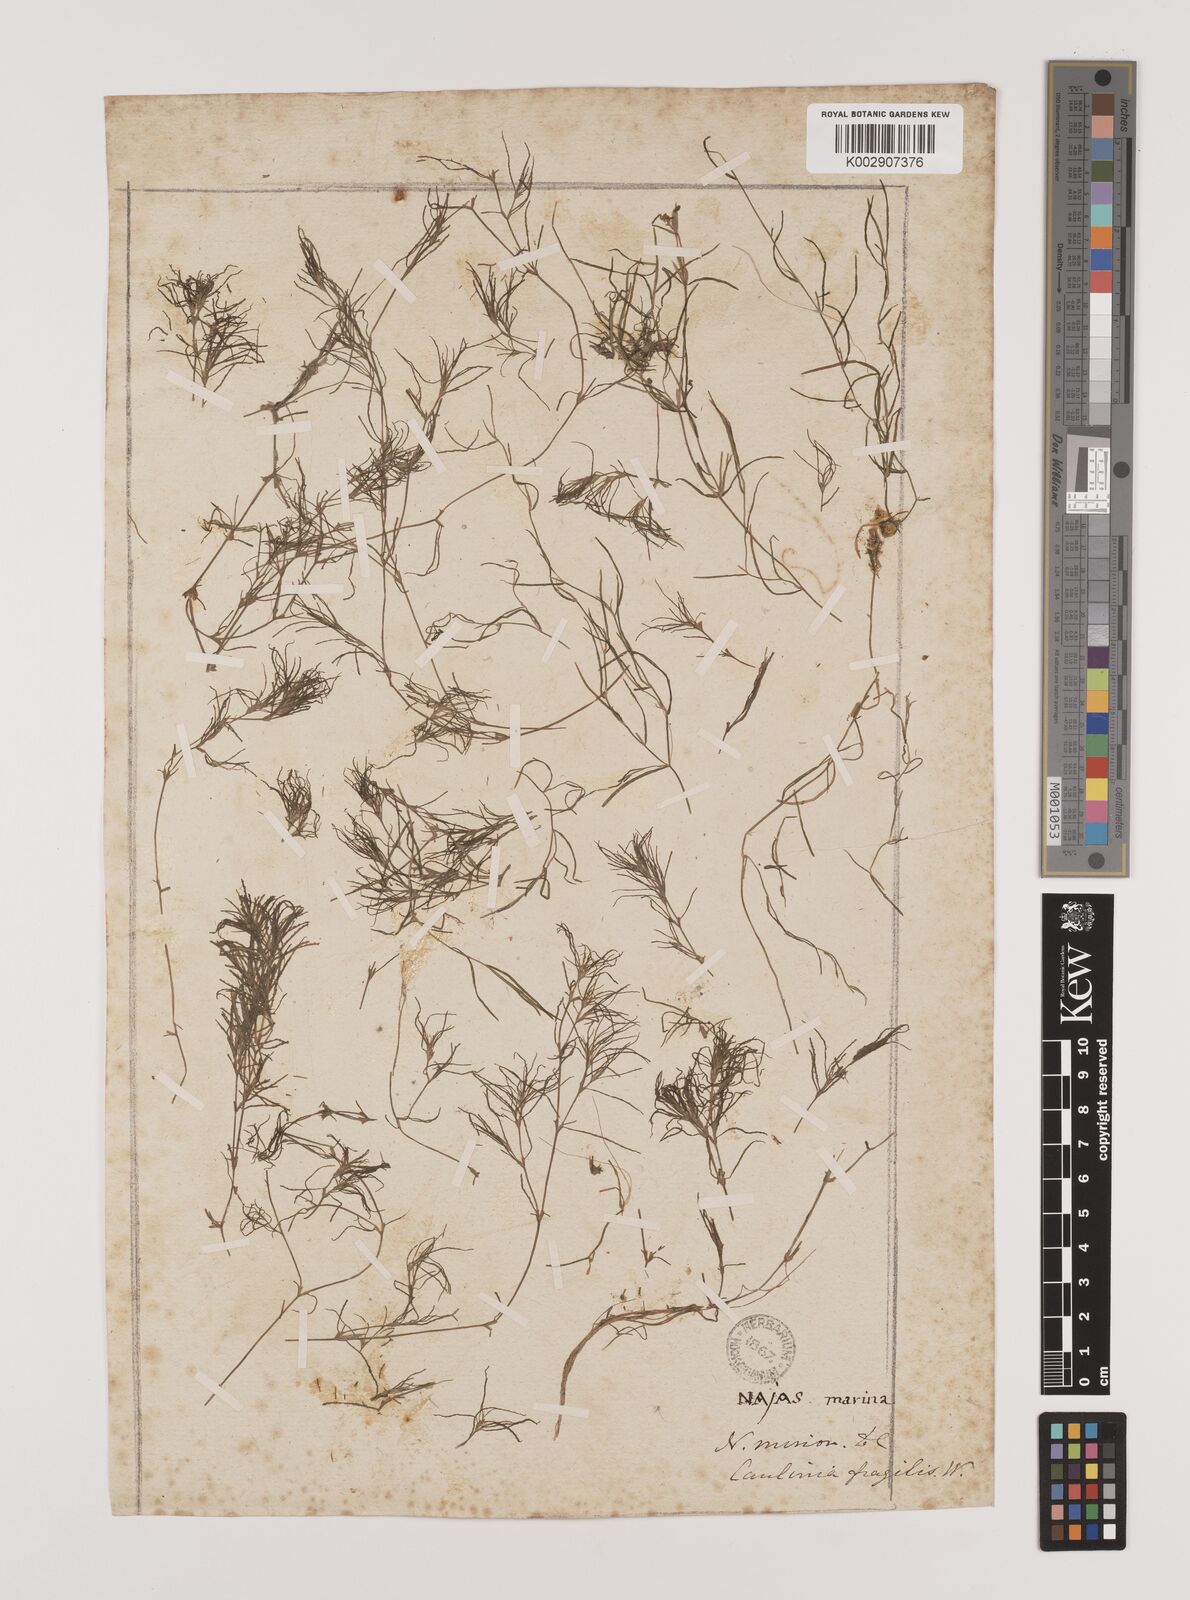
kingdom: Plantae
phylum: Tracheophyta
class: Liliopsida
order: Alismatales
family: Hydrocharitaceae
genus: Najas
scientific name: Najas minor
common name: Brittle naiad
